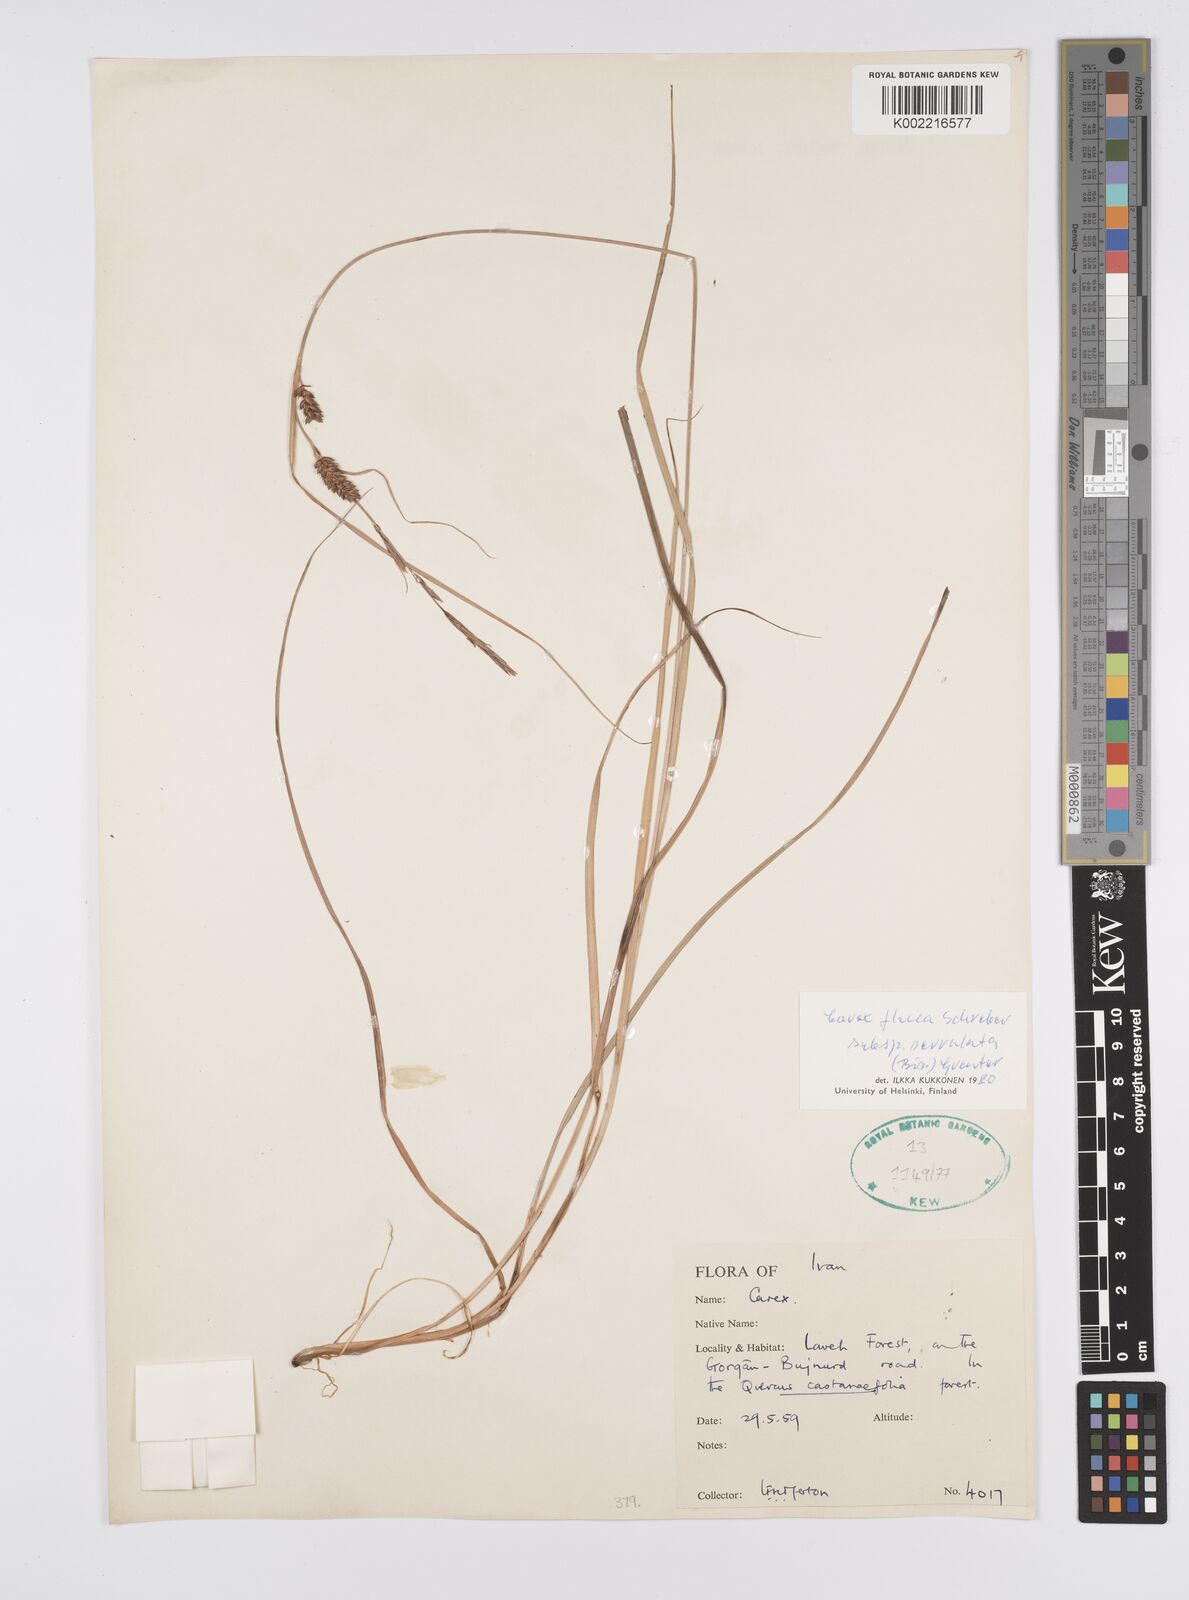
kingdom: Plantae
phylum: Tracheophyta
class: Liliopsida
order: Poales
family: Cyperaceae
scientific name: Cyperaceae
